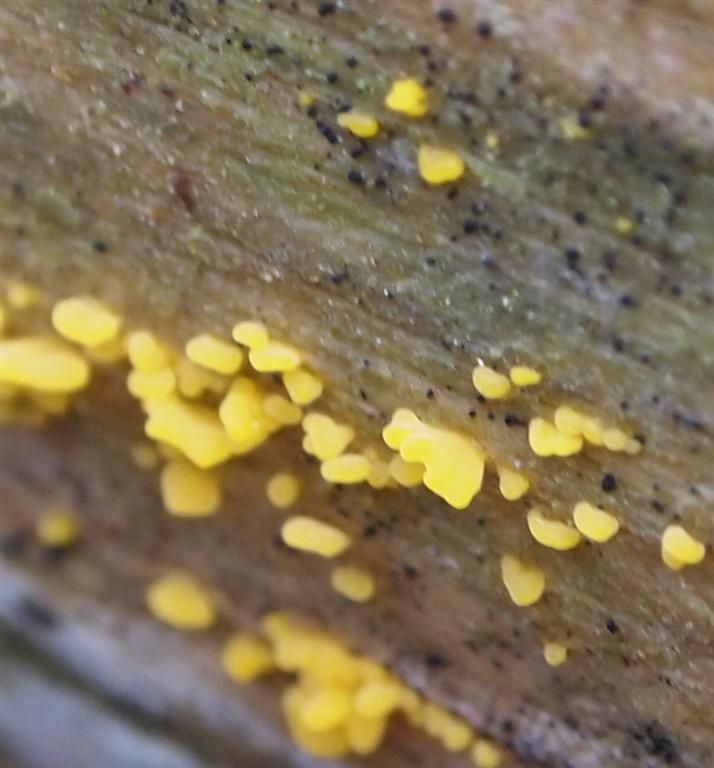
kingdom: Fungi
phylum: Basidiomycota
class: Dacrymycetes
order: Dacrymycetales
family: Dacrymycetaceae
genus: Calocera
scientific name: Calocera furcata
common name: fyrre-guldgaffel
